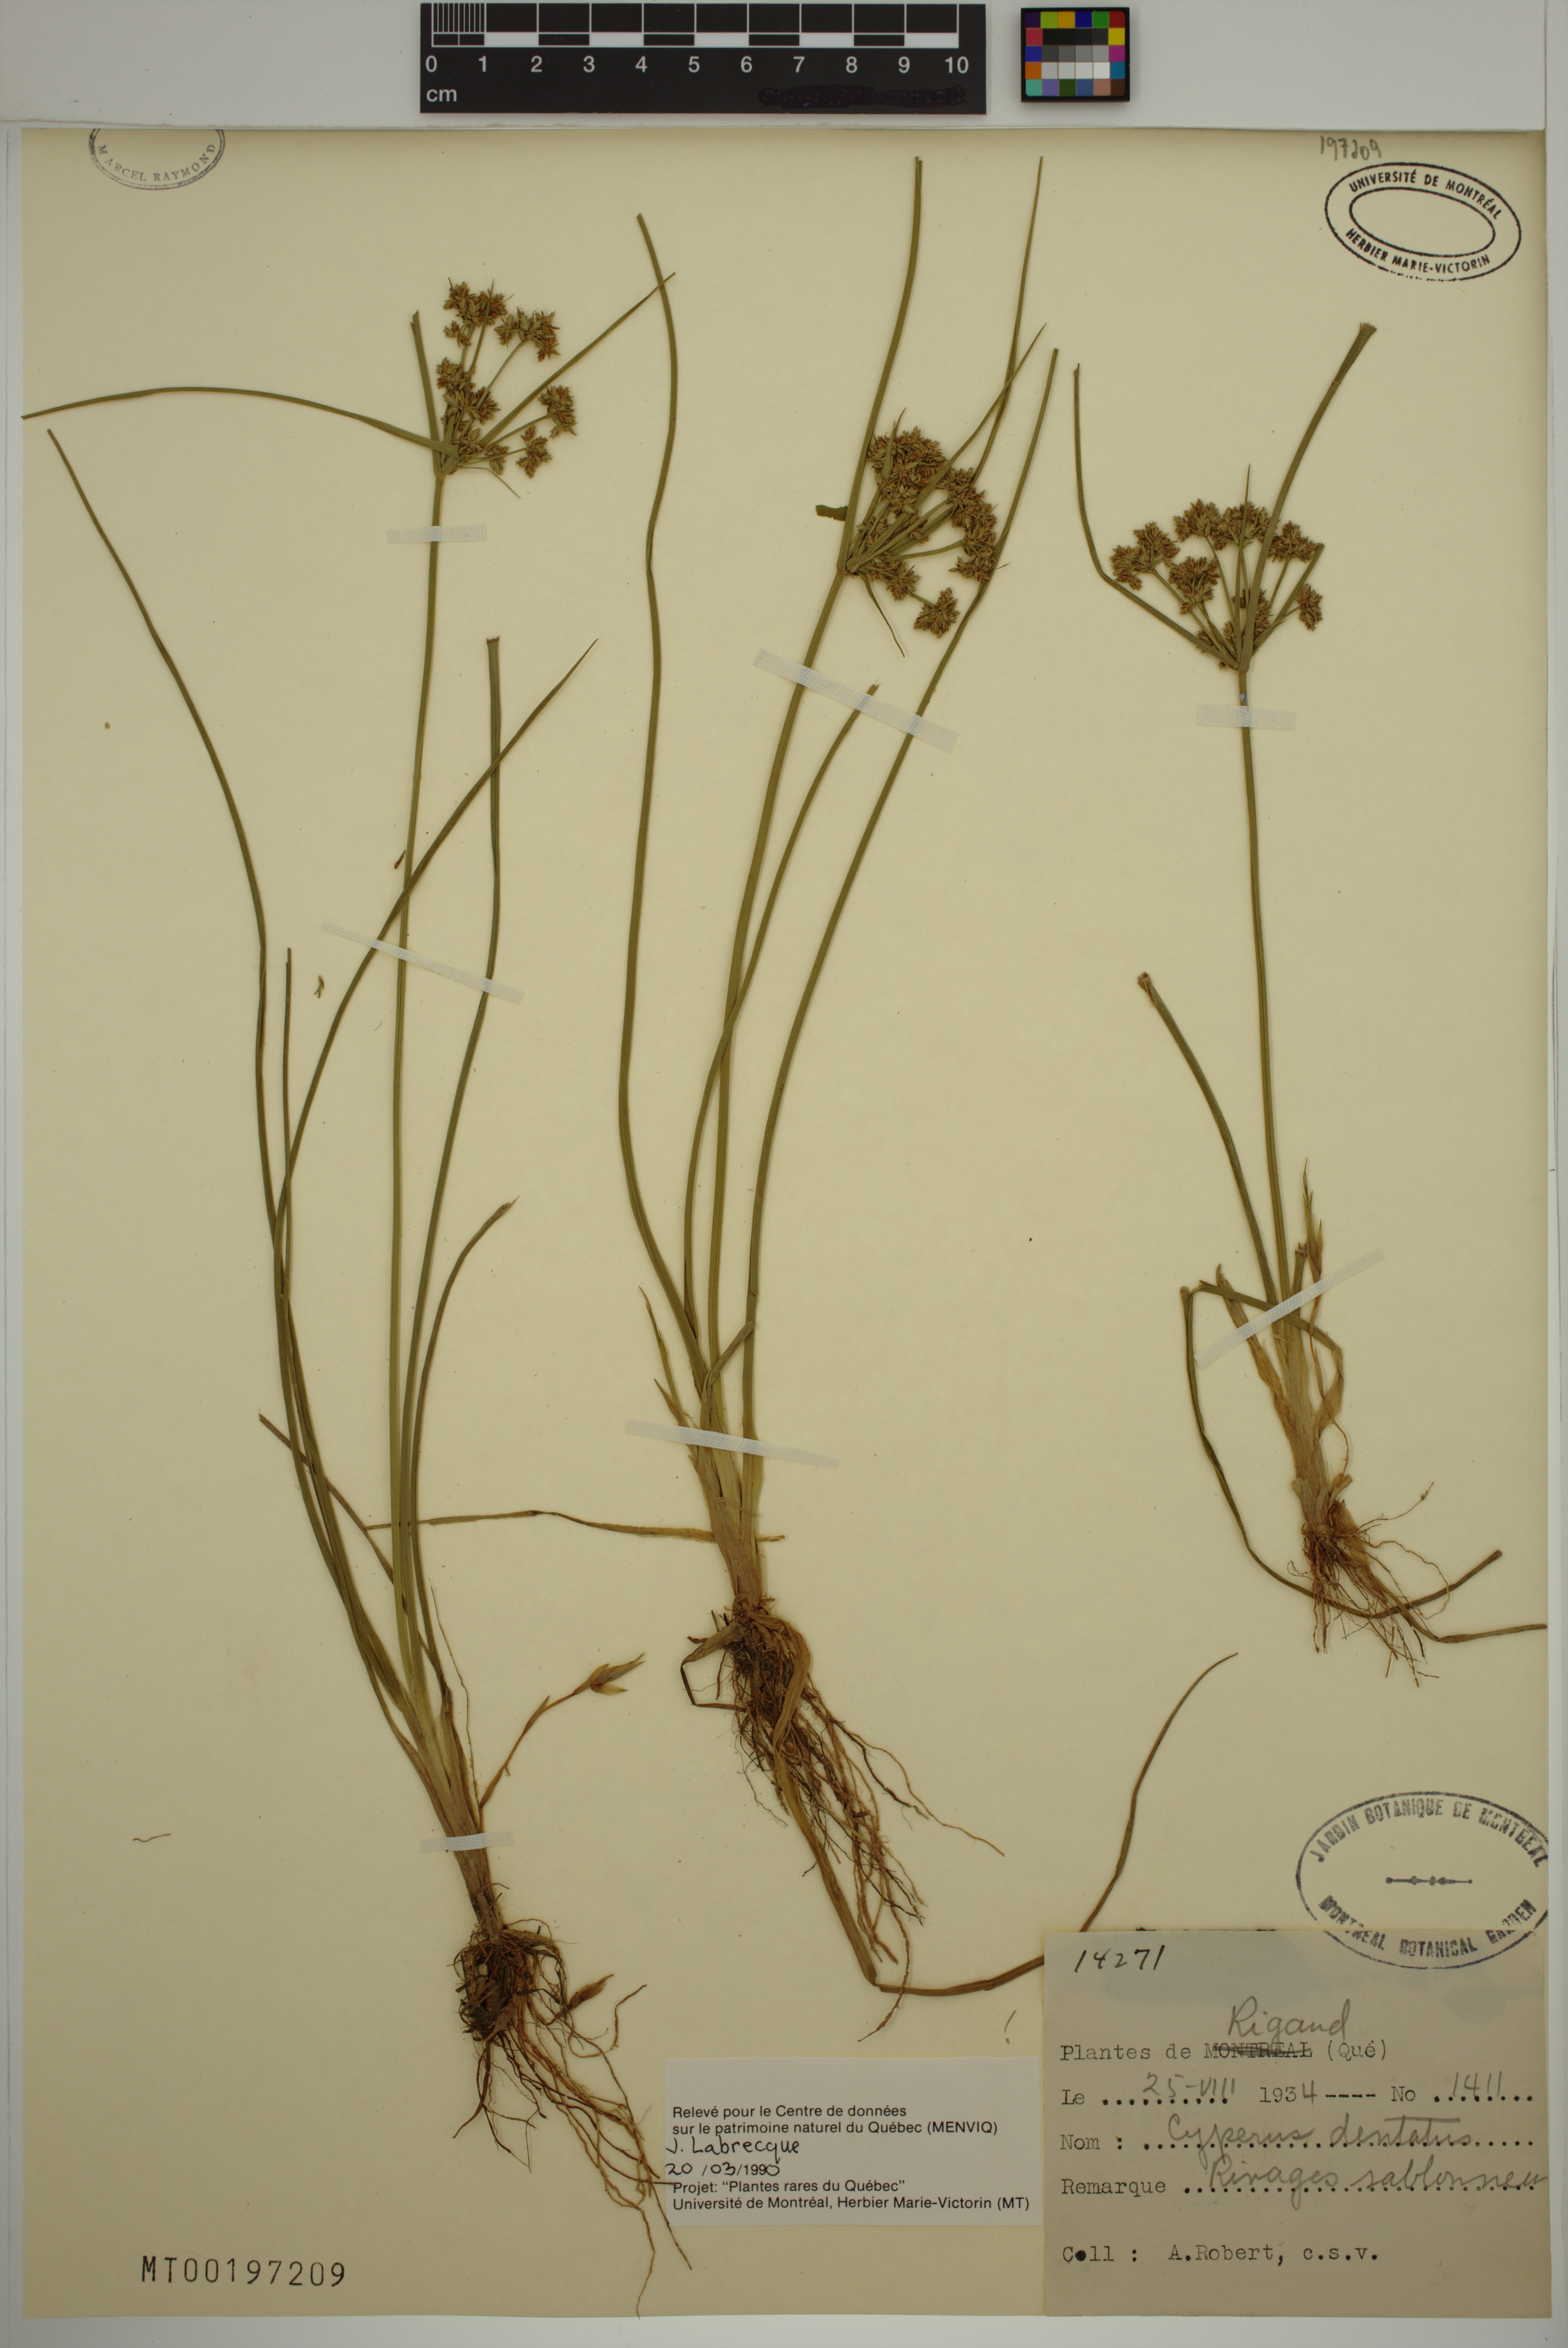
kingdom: Plantae
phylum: Tracheophyta
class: Liliopsida
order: Poales
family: Cyperaceae
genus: Cyperus
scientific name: Cyperus dentatus
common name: Dentate umbrella sedge
